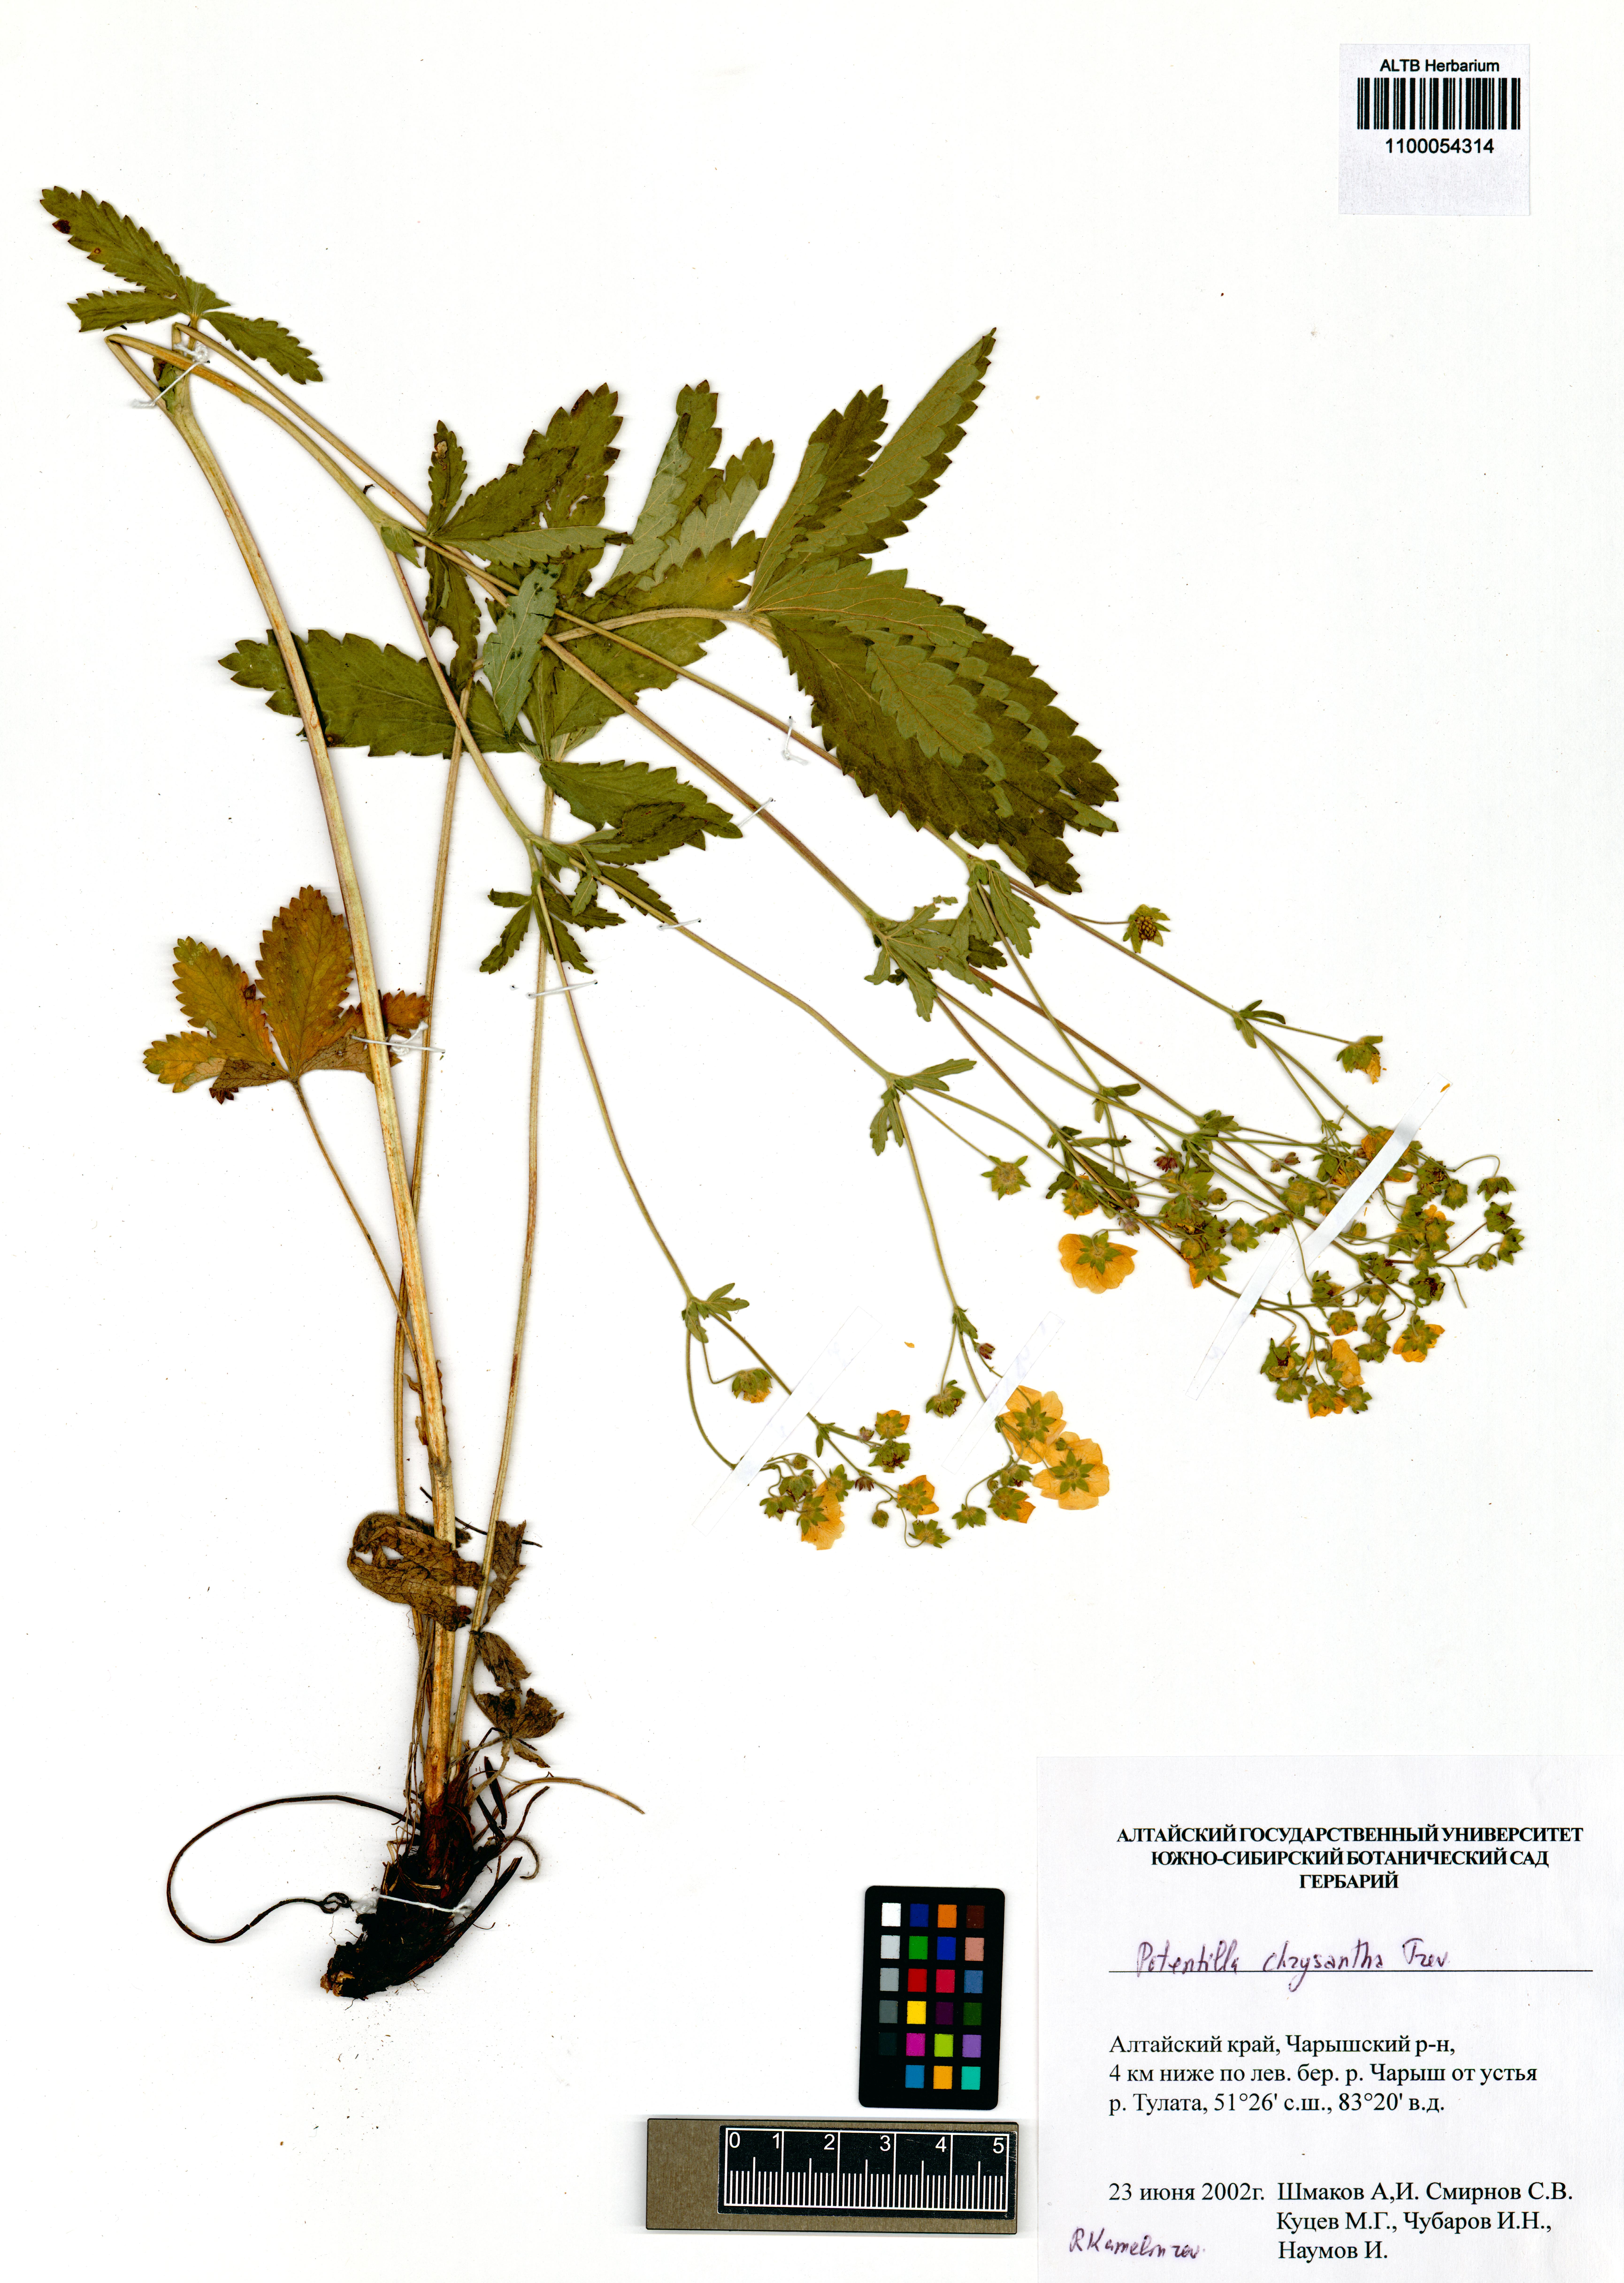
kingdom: Plantae
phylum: Tracheophyta
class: Magnoliopsida
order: Rosales
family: Rosaceae
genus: Potentilla
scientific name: Potentilla chrysantha
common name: Thuringian cinquefoil
